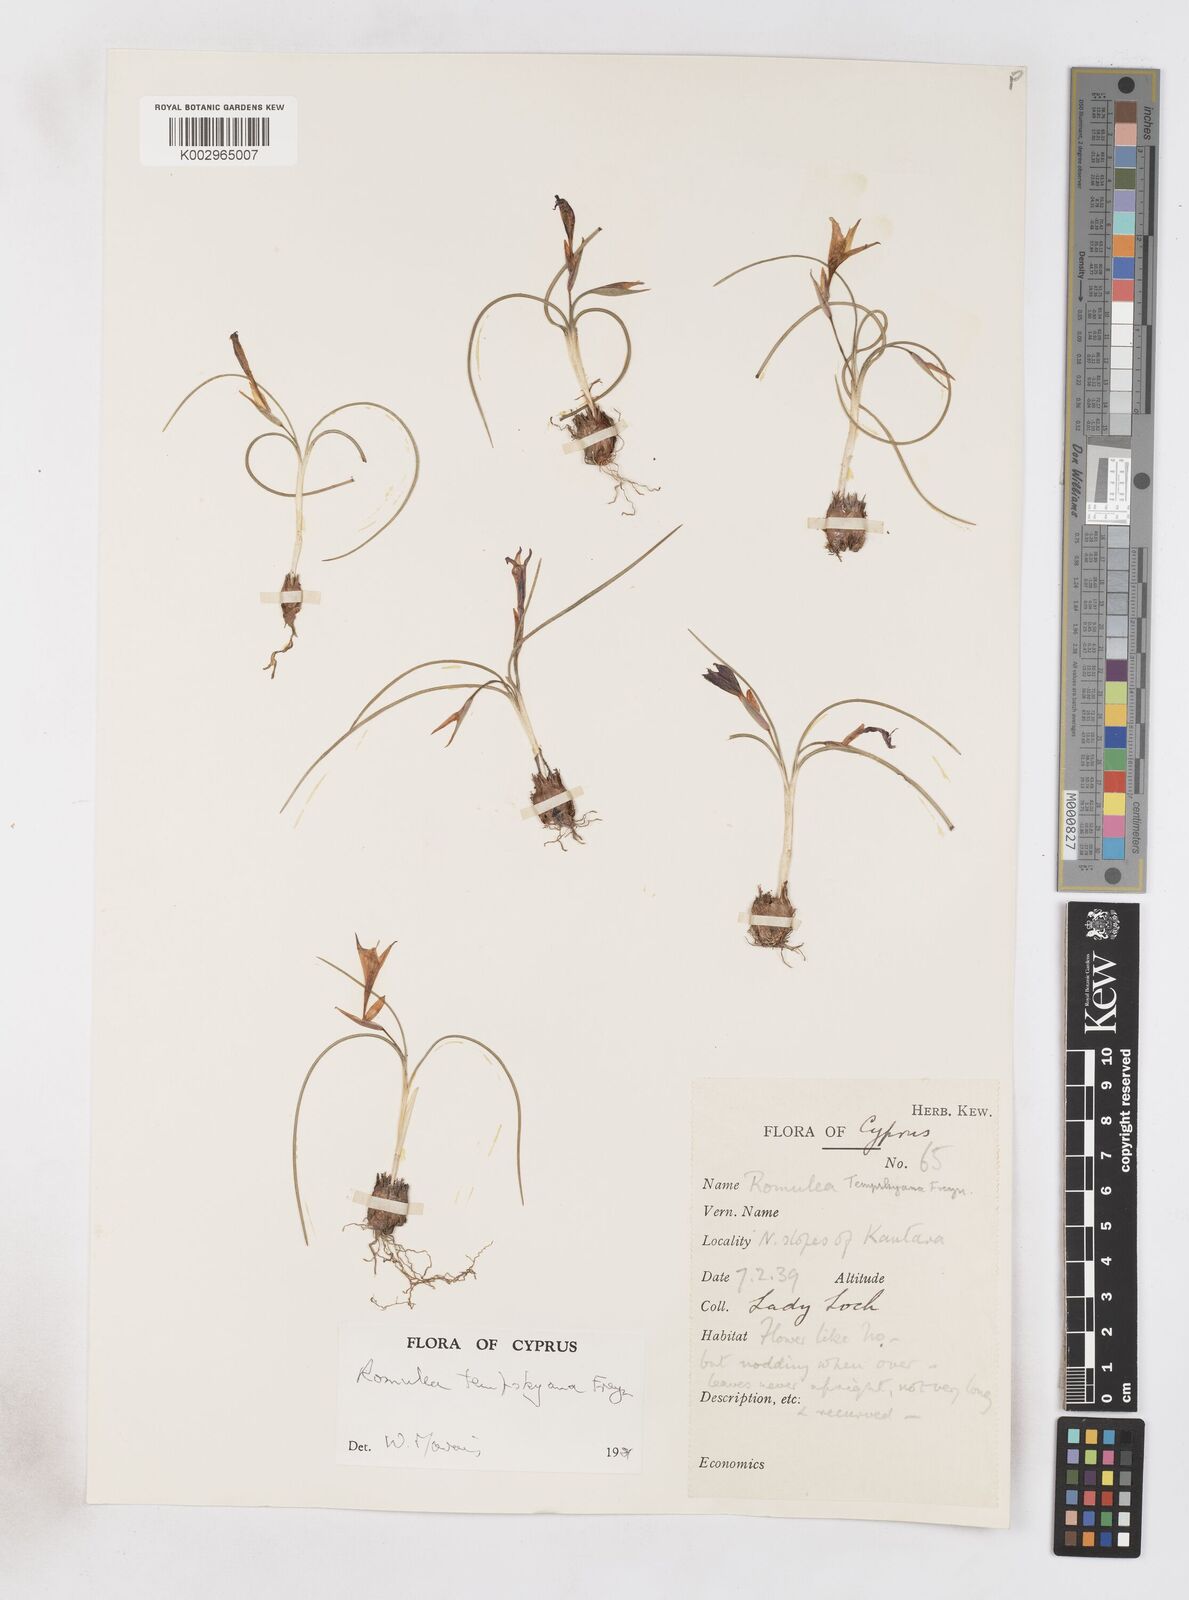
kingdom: Plantae
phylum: Tracheophyta
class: Liliopsida
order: Asparagales
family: Iridaceae
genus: Romulea
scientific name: Romulea tempskyana
